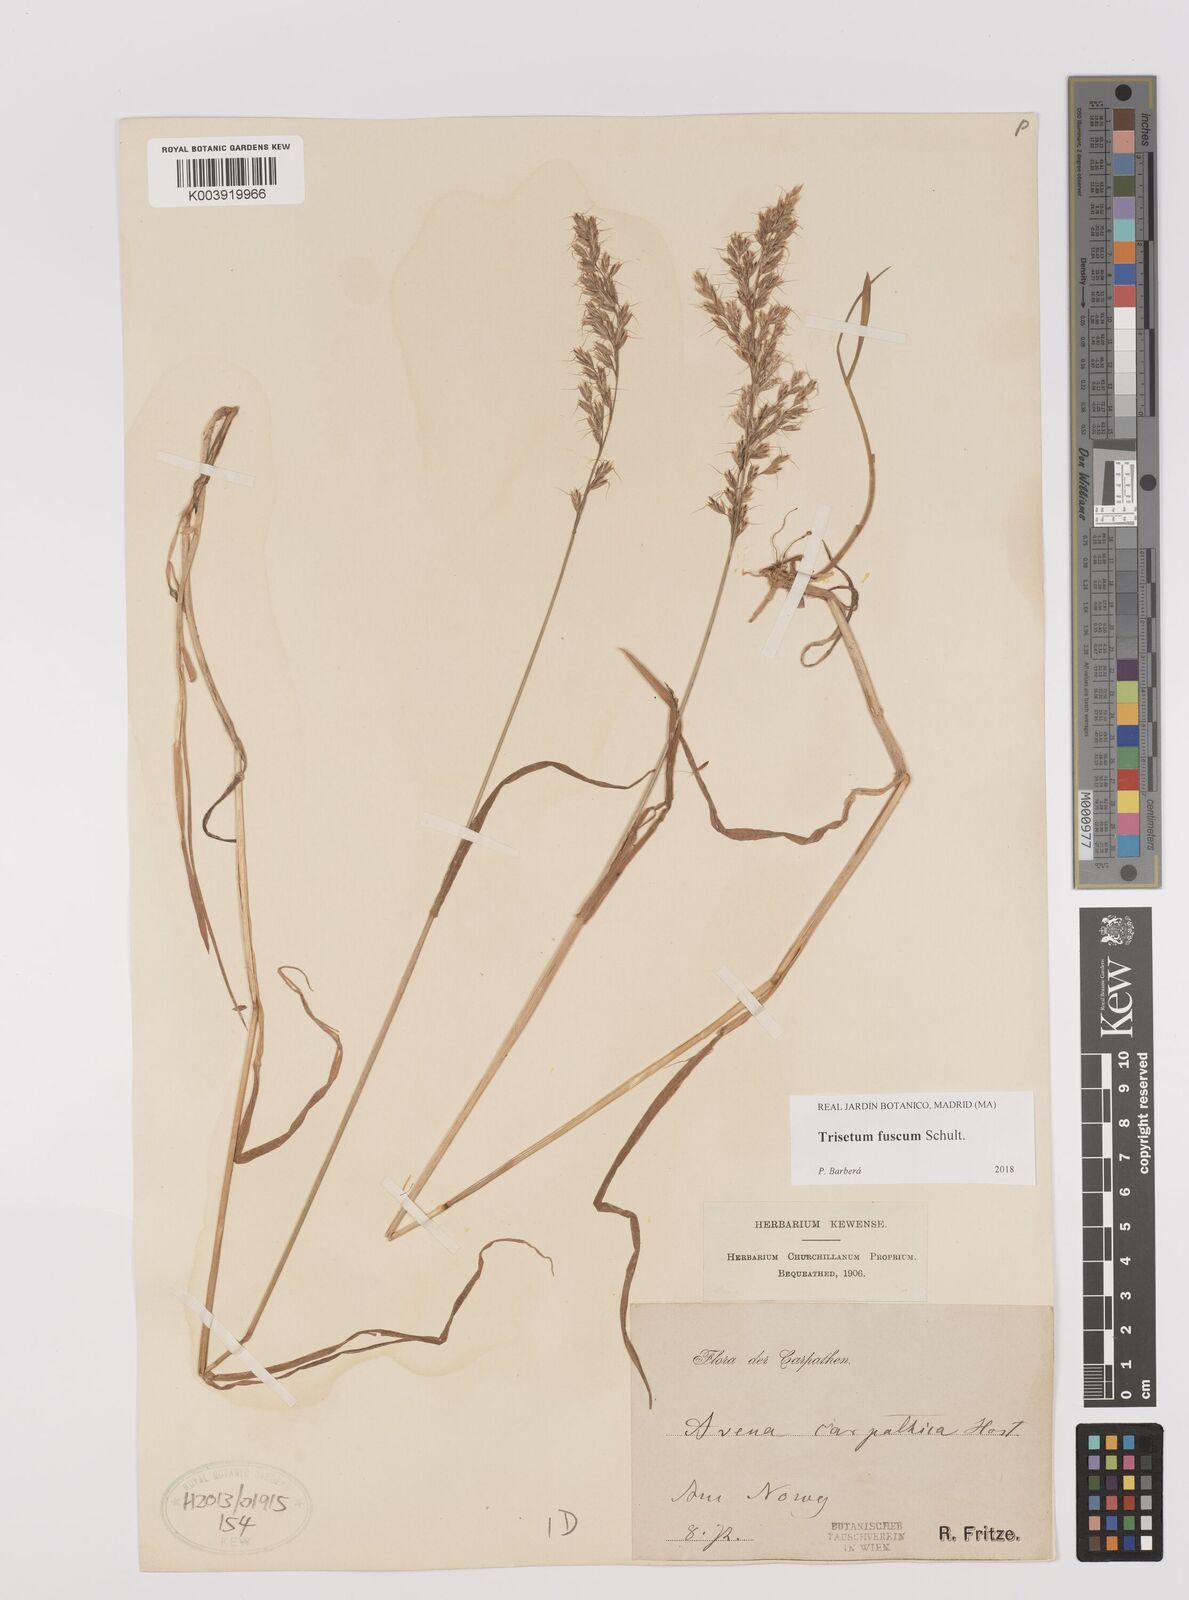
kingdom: Plantae
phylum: Tracheophyta
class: Liliopsida
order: Poales
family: Poaceae
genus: Trisetum
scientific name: Trisetum fuscum
